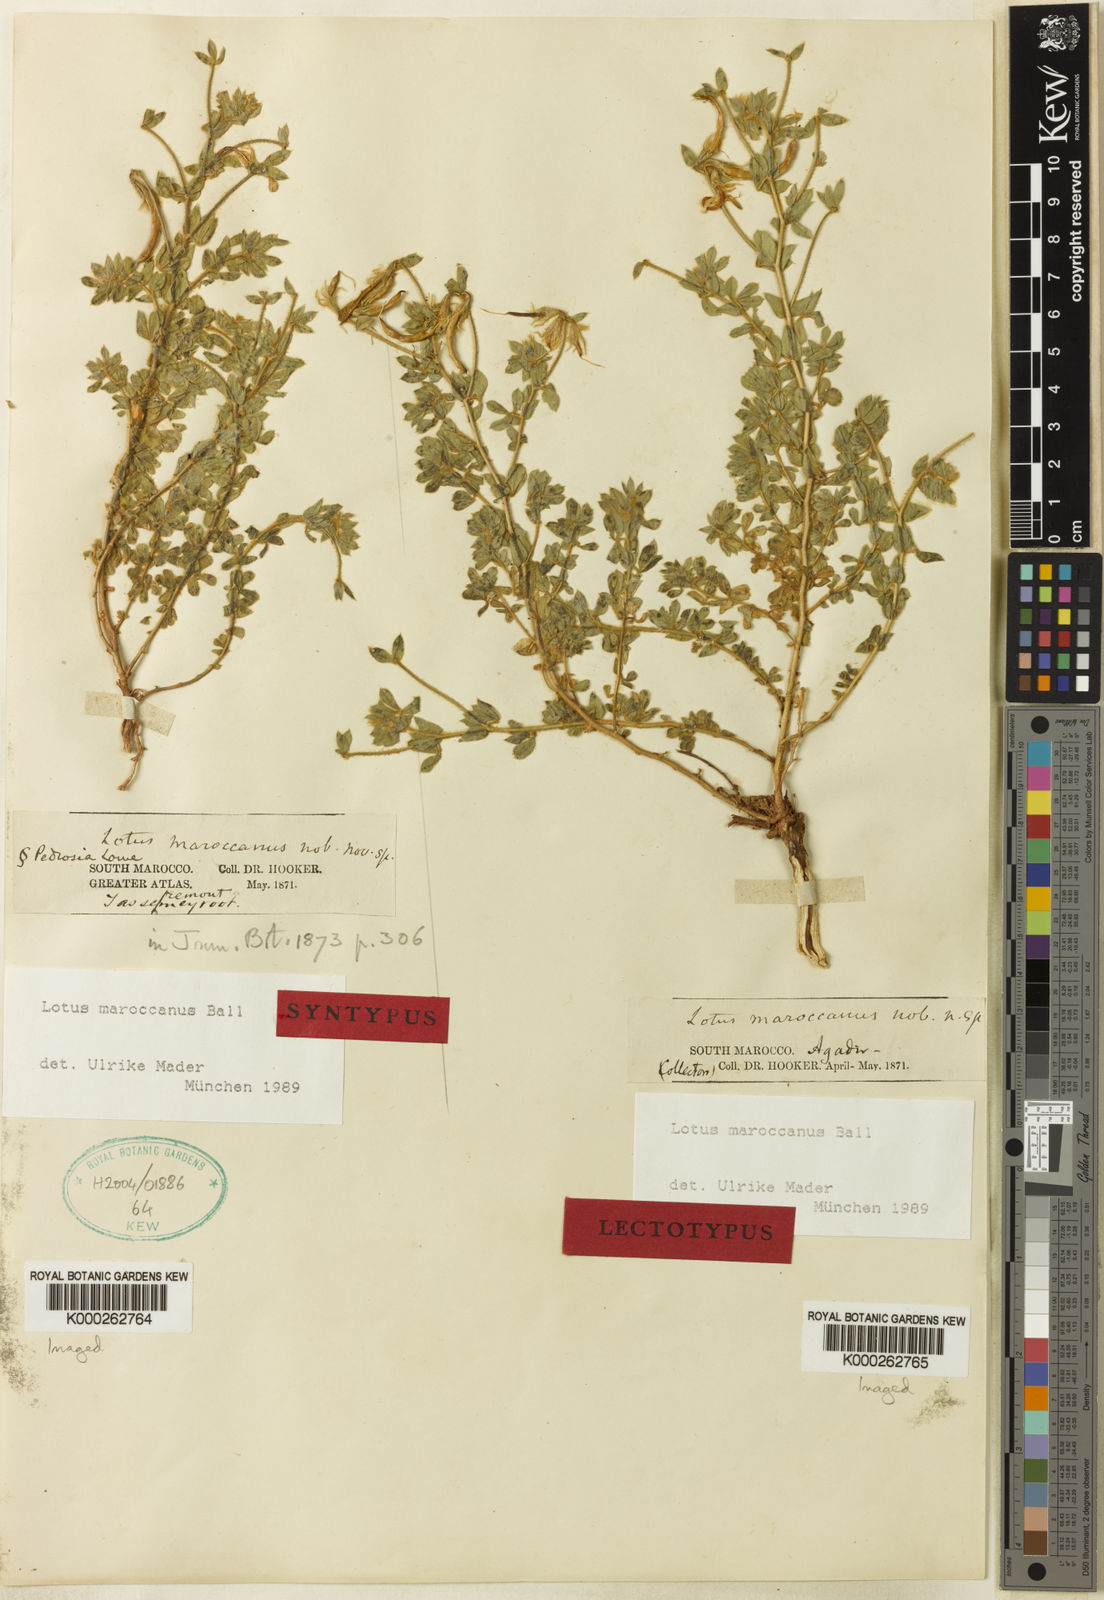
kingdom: Plantae
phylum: Tracheophyta
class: Magnoliopsida
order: Fabales
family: Fabaceae
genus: Lotus
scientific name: Lotus maroccanus
